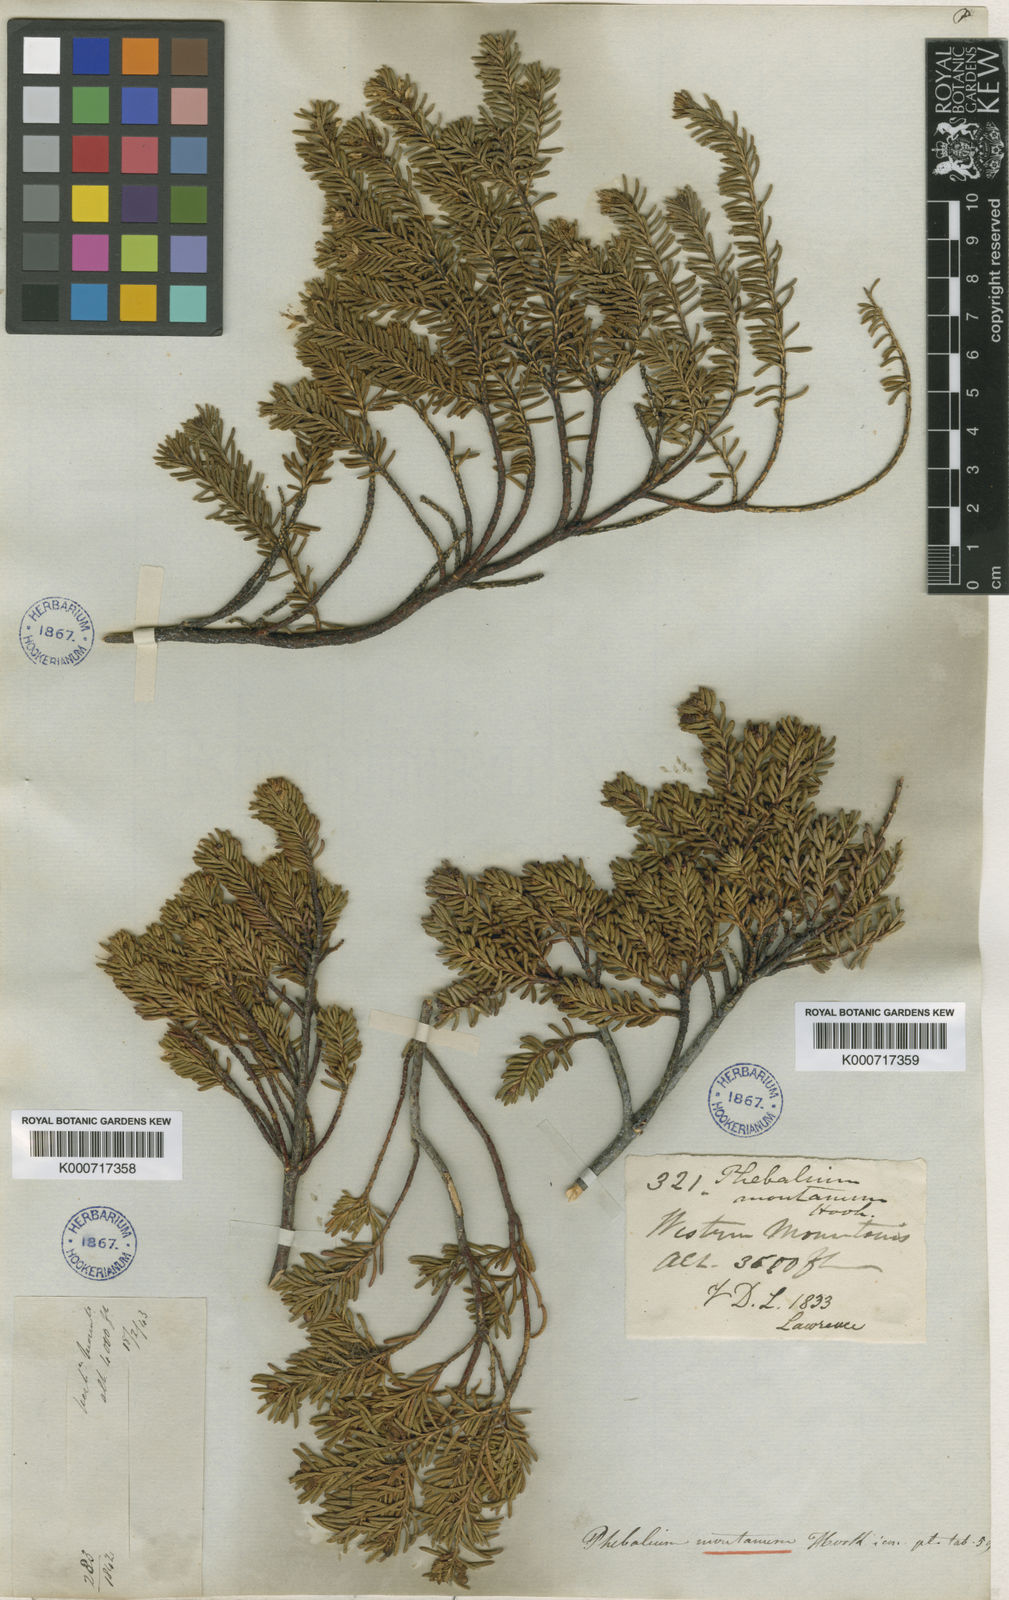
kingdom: Plantae
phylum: Tracheophyta
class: Magnoliopsida
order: Sapindales
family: Rutaceae
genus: Leionema
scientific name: Leionema montanum
